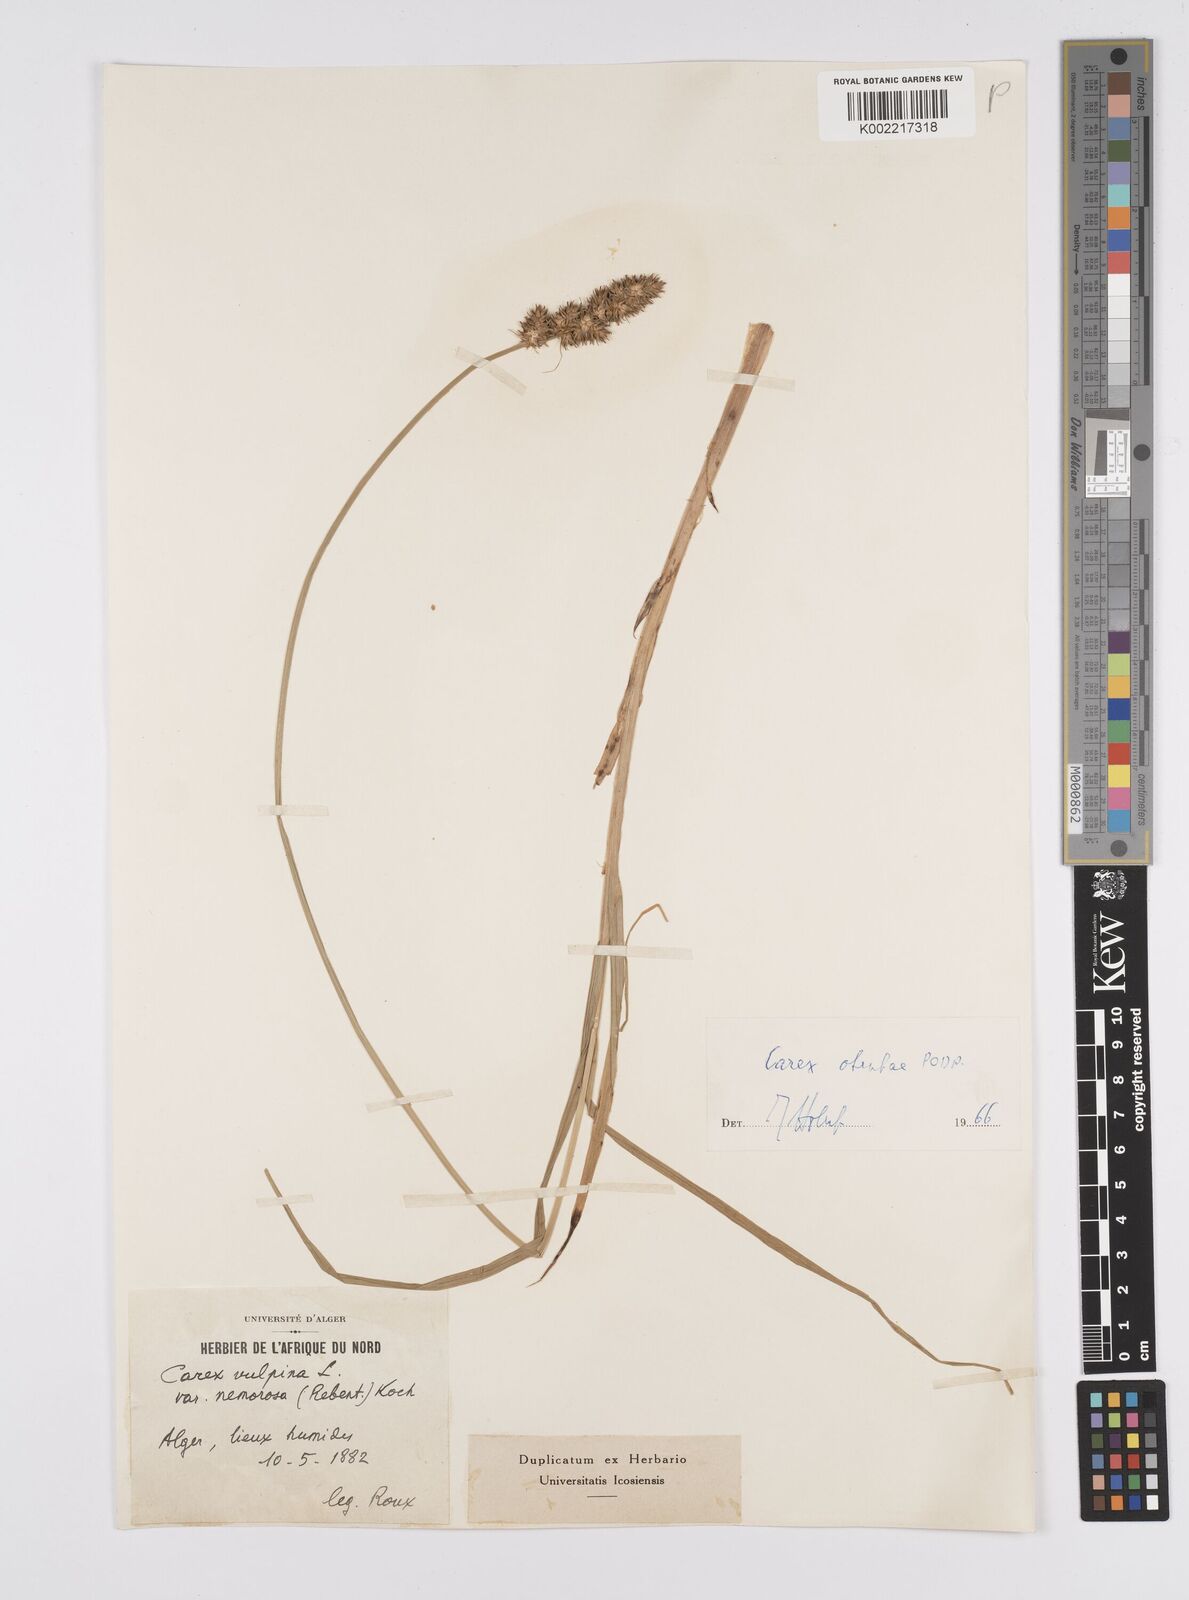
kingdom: Plantae
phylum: Tracheophyta
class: Liliopsida
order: Poales
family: Cyperaceae
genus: Carex
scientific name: Carex otrubae
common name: False fox-sedge
